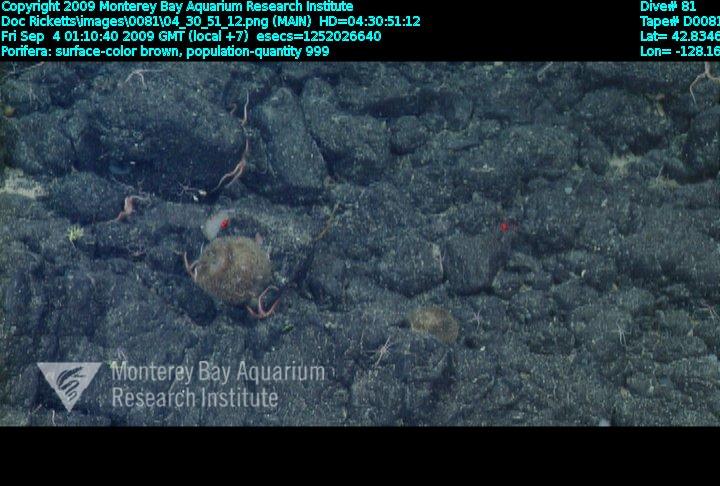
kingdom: Animalia
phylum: Porifera
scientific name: Porifera
